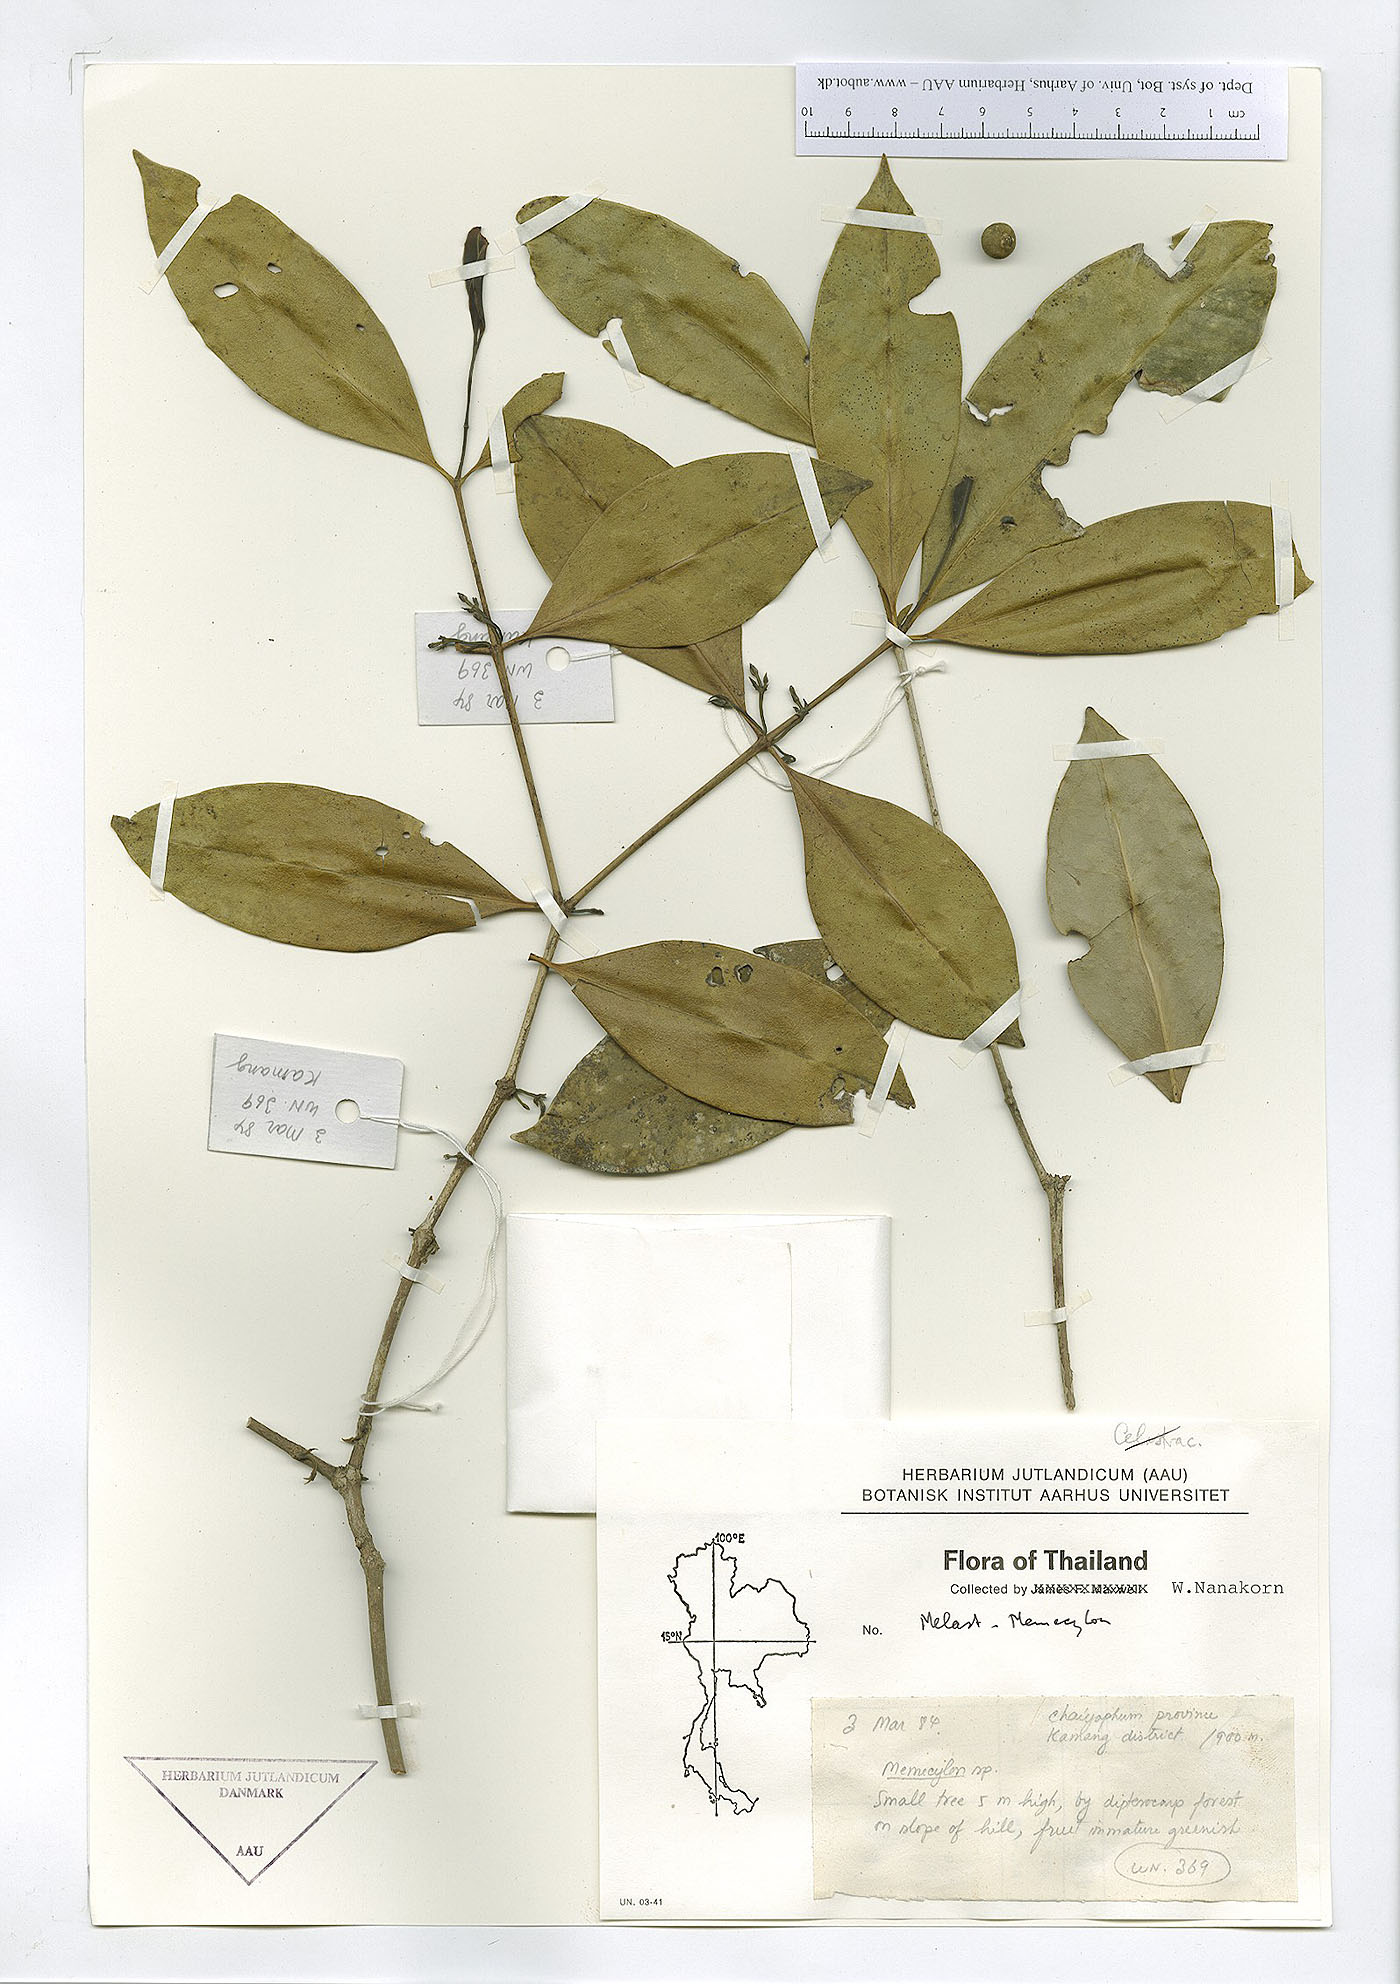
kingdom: Plantae
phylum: Tracheophyta
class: Magnoliopsida
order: Myrtales
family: Melastomataceae
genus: Memecylon
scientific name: Memecylon
